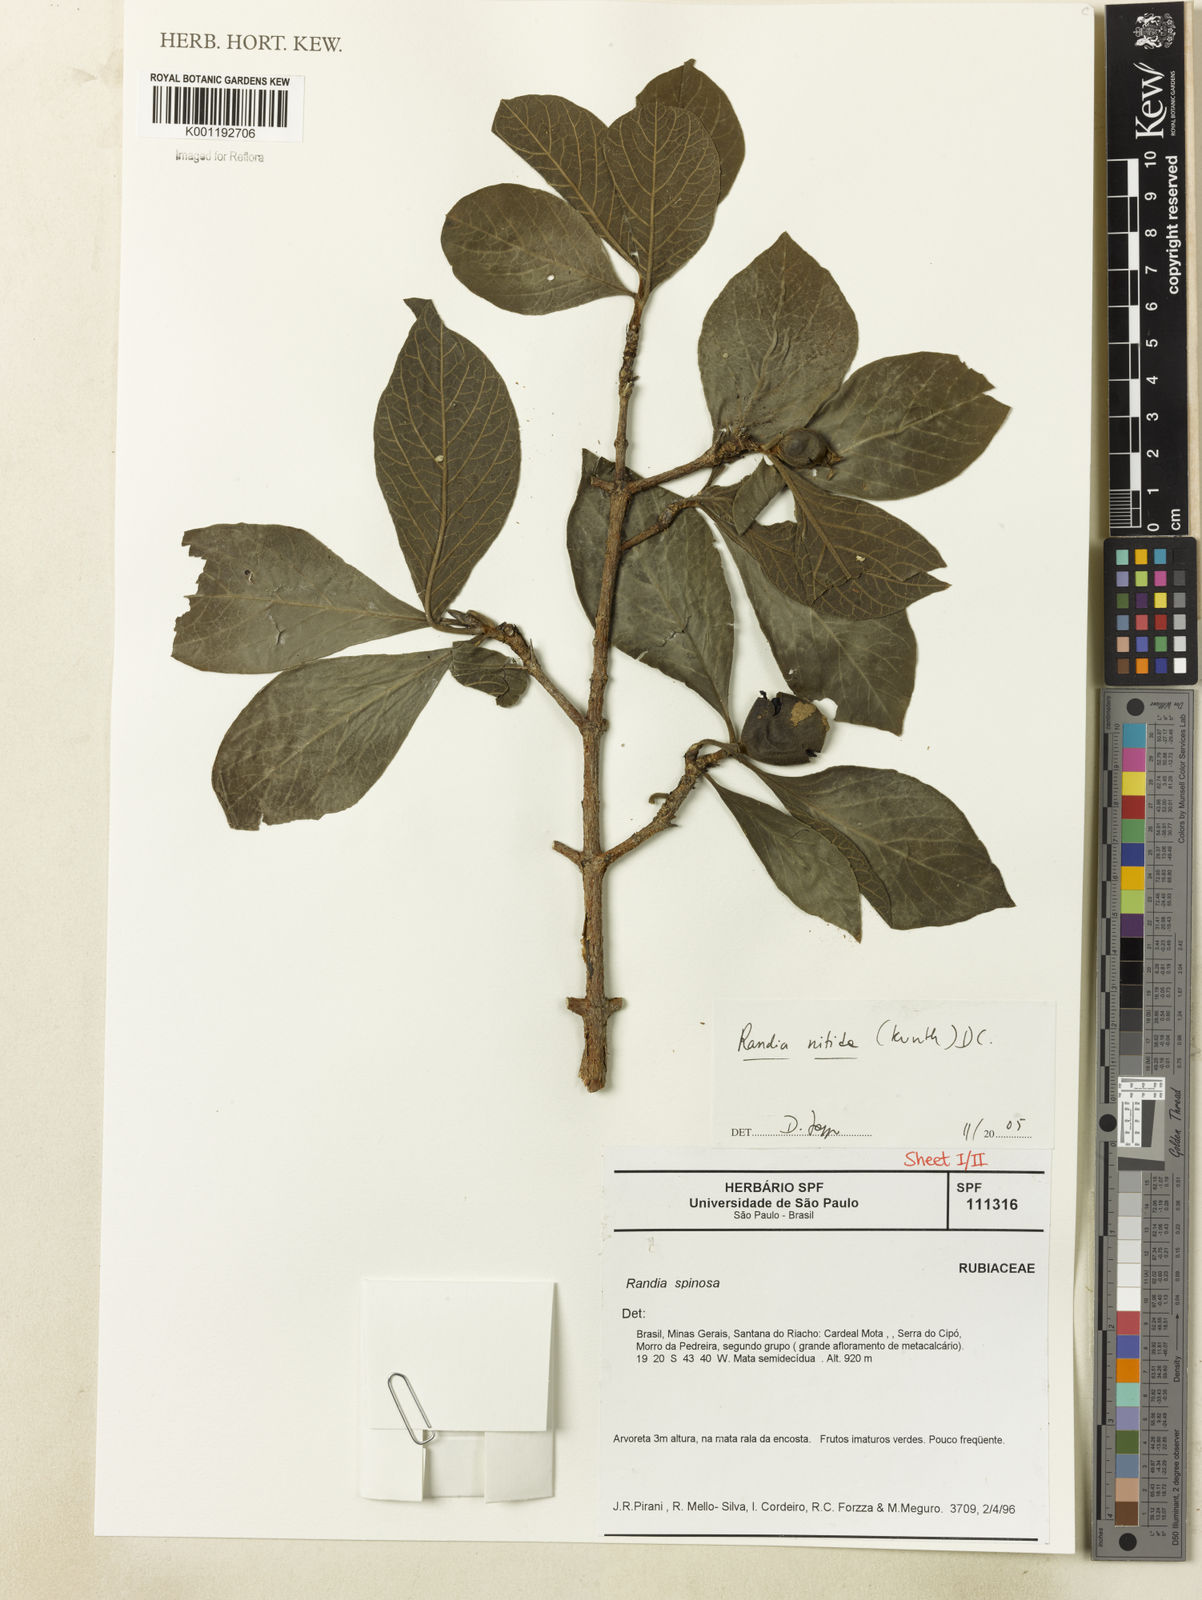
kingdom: Plantae
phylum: Tracheophyta
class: Magnoliopsida
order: Gentianales
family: Rubiaceae
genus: Randia
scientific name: Randia nitida
